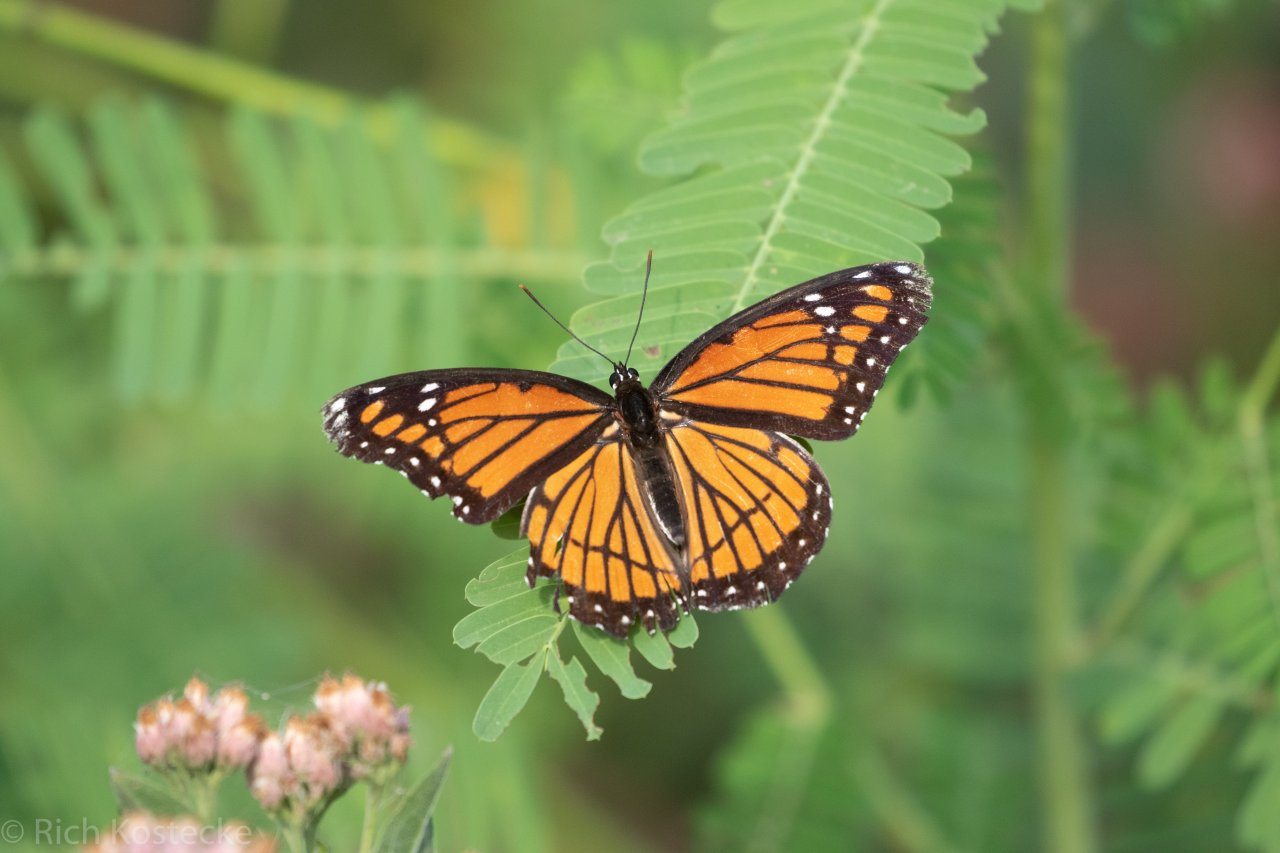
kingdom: Animalia
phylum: Arthropoda
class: Insecta
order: Lepidoptera
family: Nymphalidae
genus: Limenitis
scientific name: Limenitis archippus
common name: Viceroy
